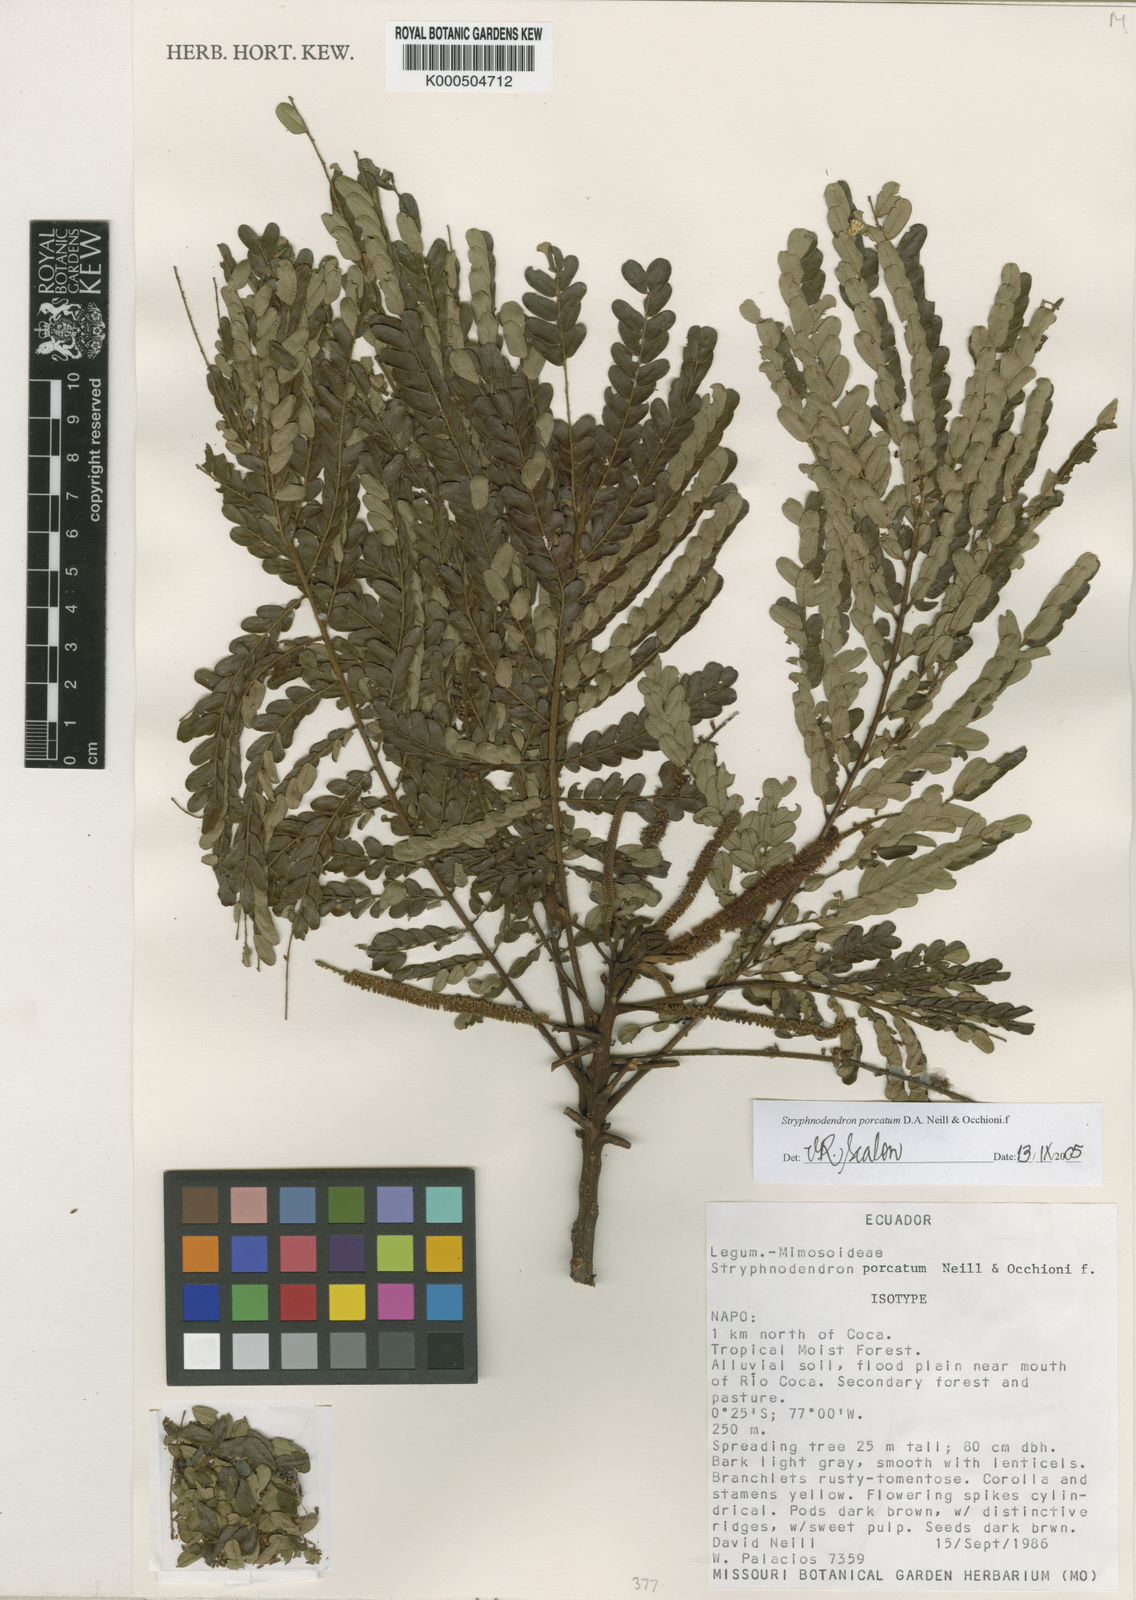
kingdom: Plantae
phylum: Tracheophyta
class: Magnoliopsida
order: Fabales
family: Fabaceae
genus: Stryphnodendron
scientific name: Stryphnodendron porcatum
